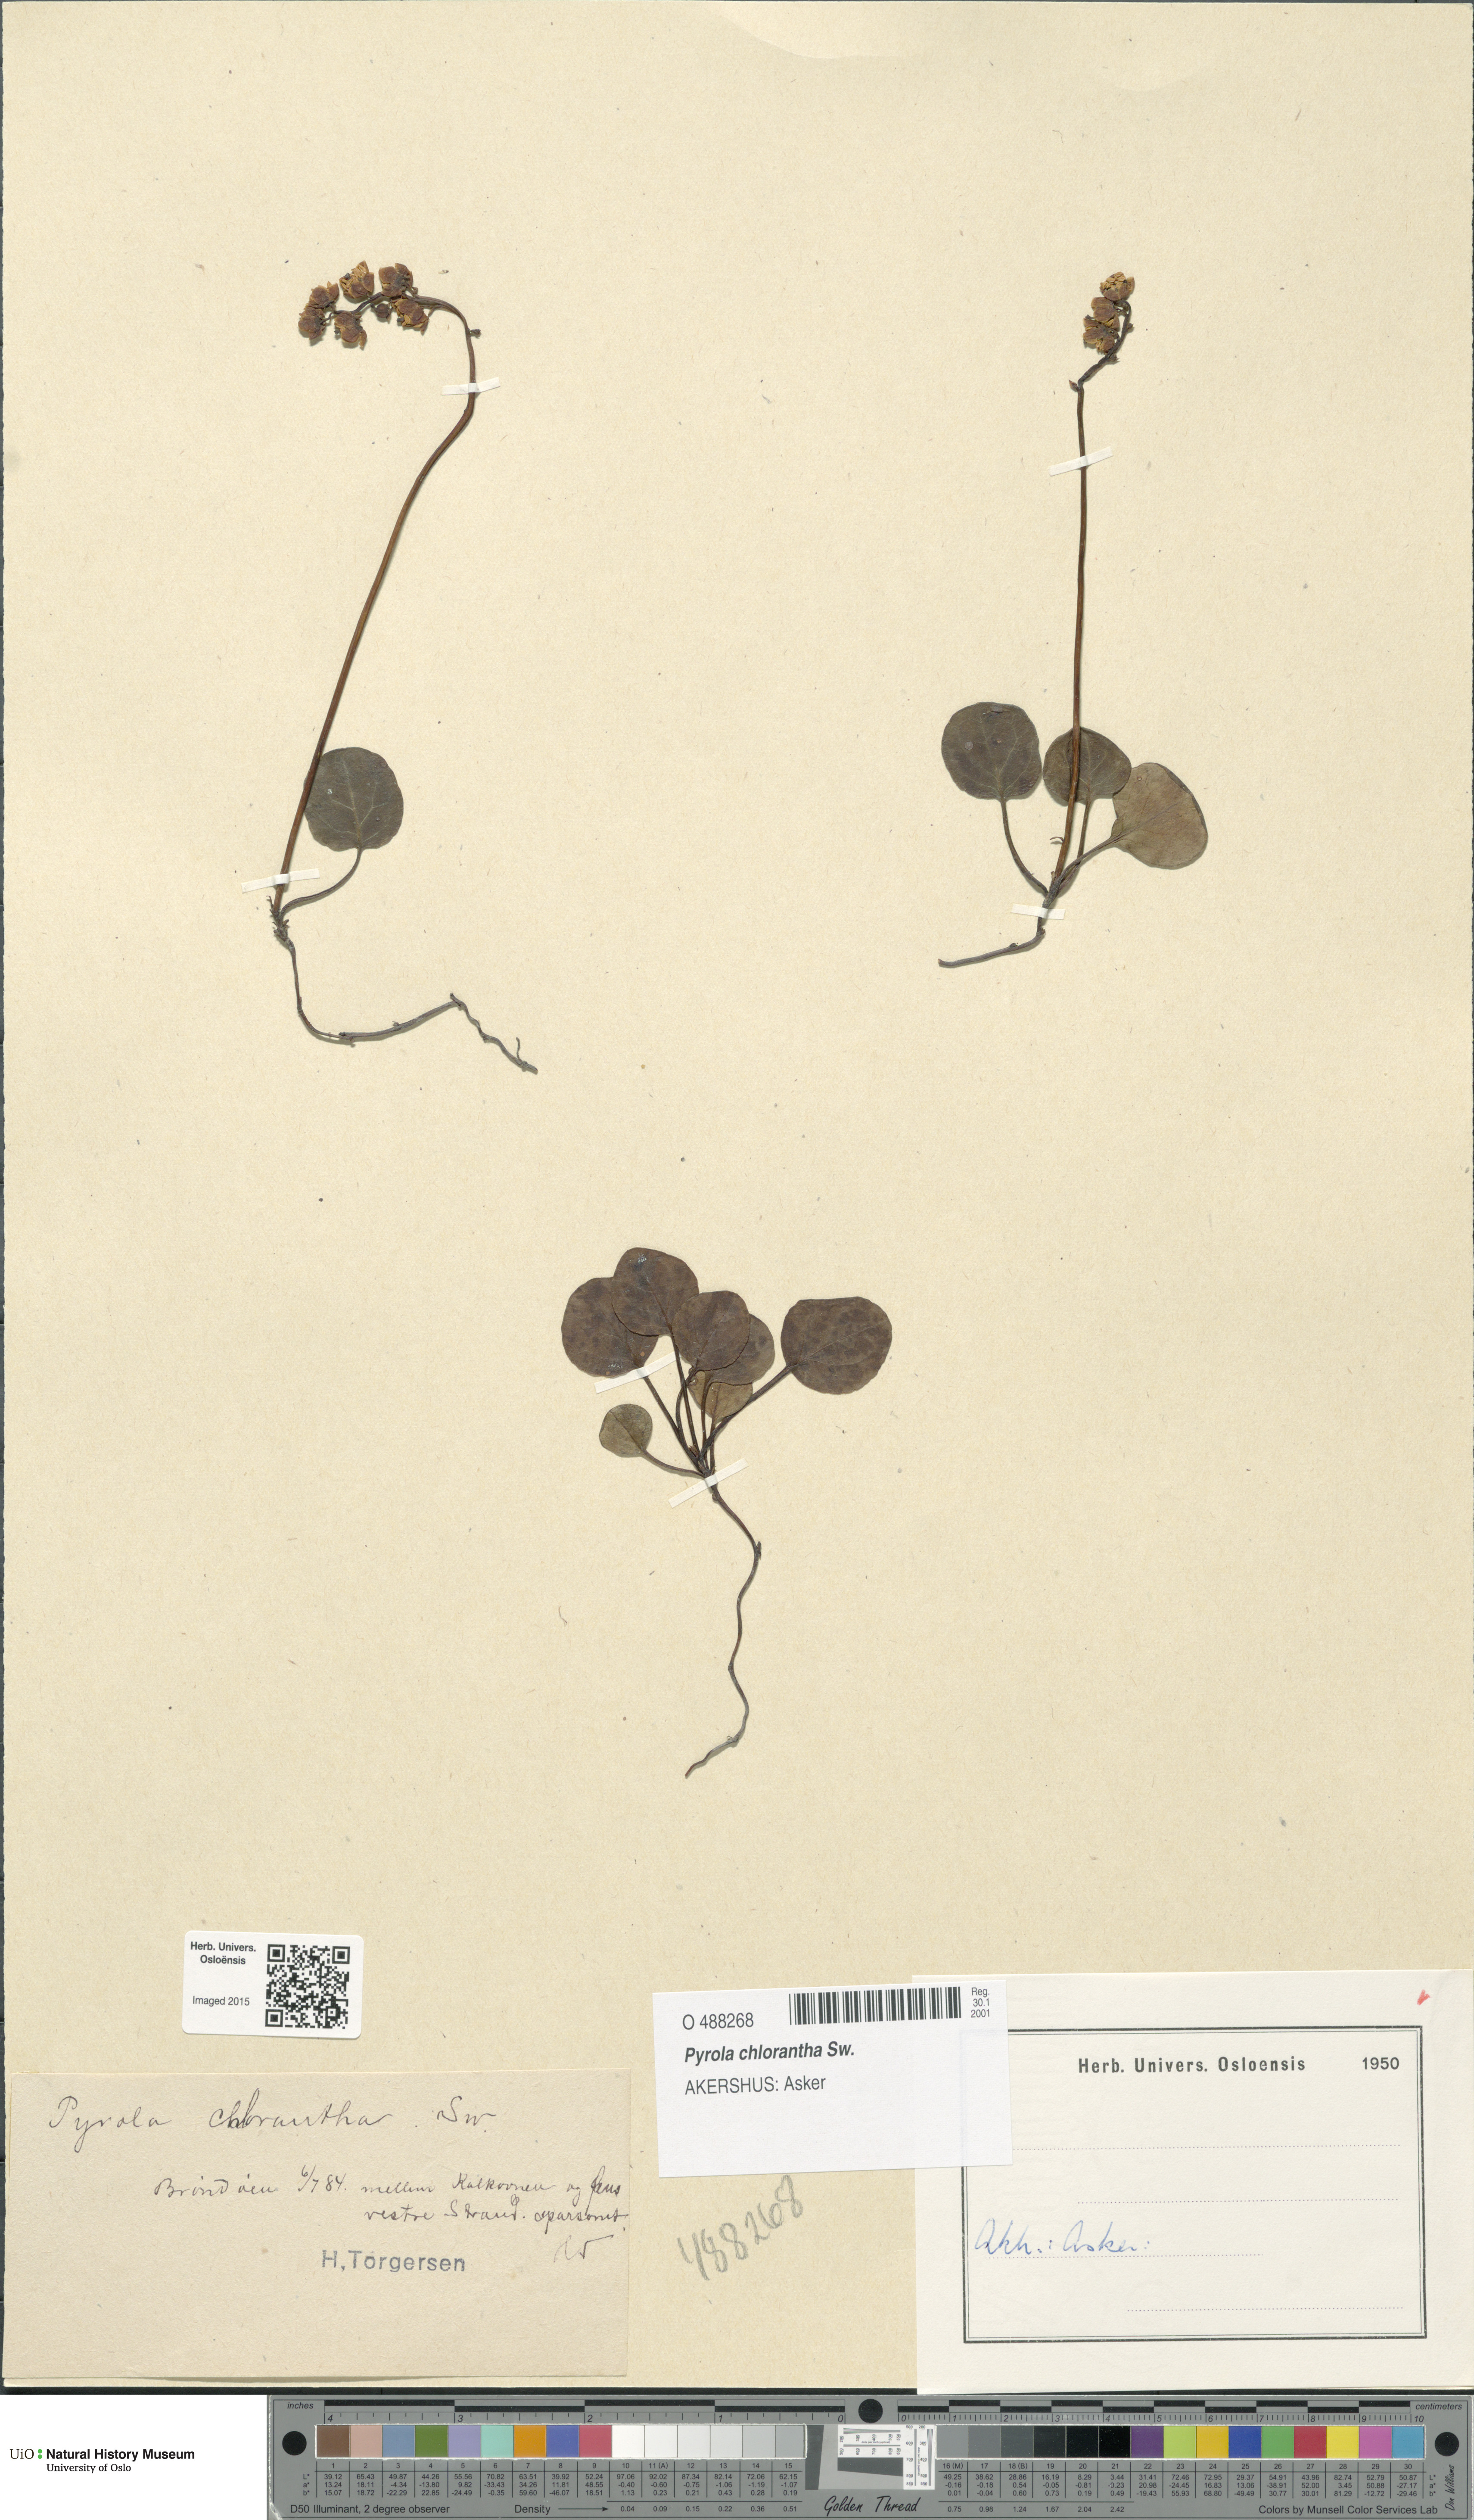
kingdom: Plantae
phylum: Tracheophyta
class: Magnoliopsida
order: Ericales
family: Ericaceae
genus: Pyrola
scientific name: Pyrola chlorantha
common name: Green wintergreen
